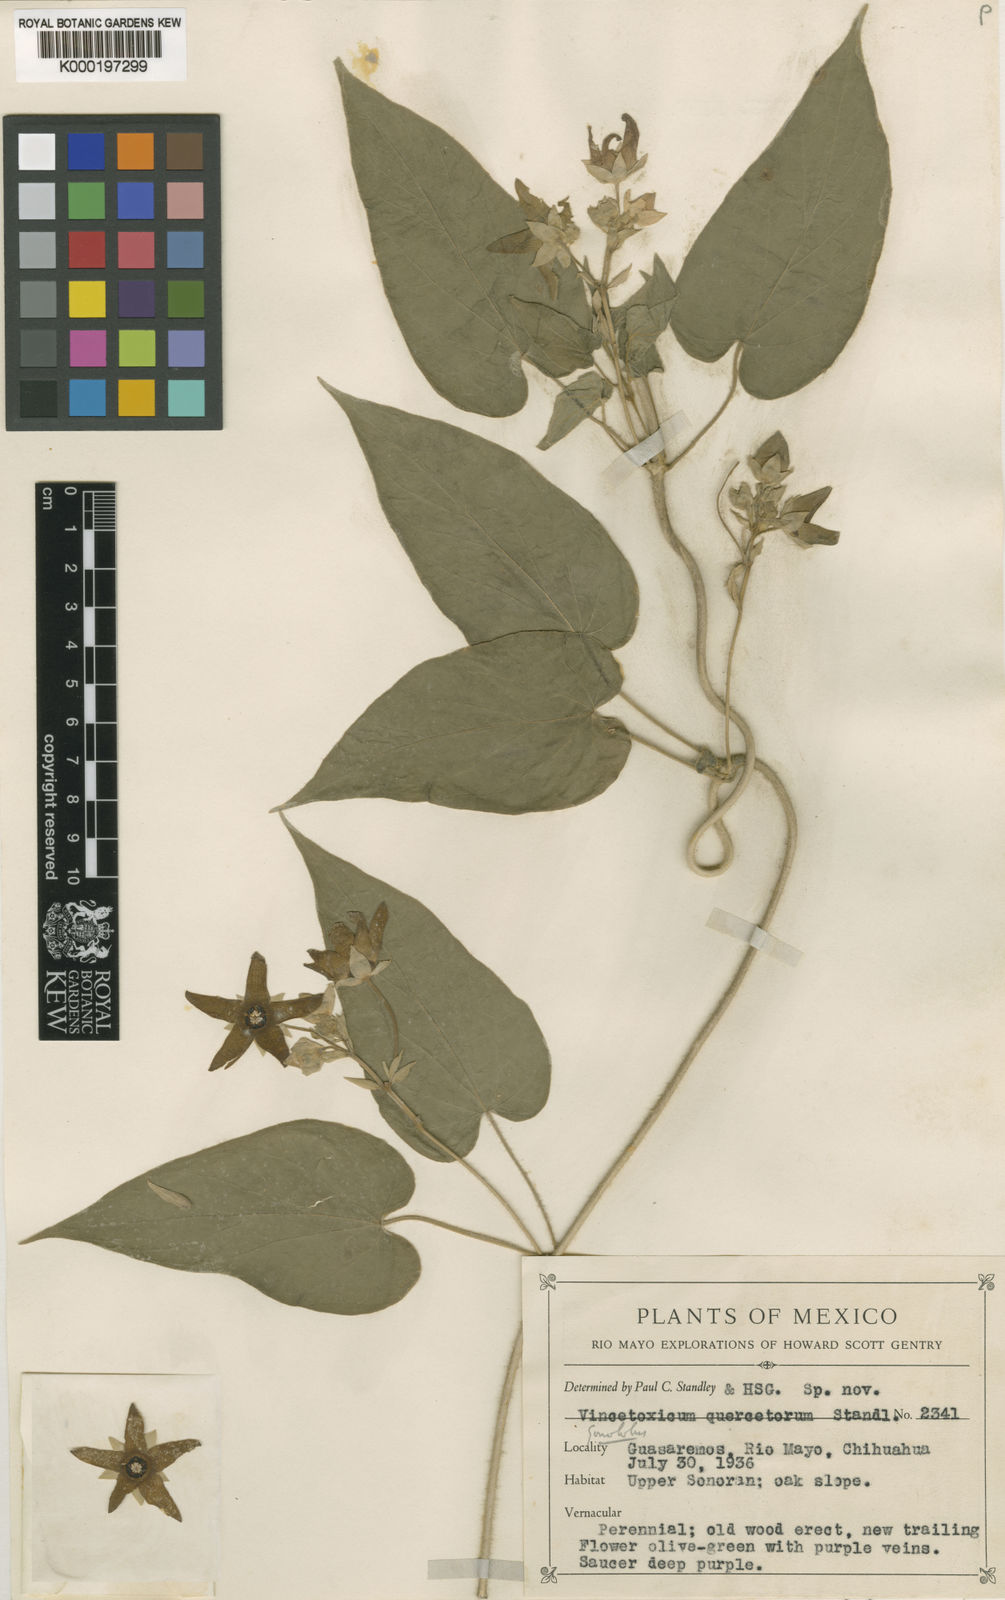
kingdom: Plantae
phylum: Tracheophyta
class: Magnoliopsida
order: Gentianales
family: Apocynaceae
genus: Matelea
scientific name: Matelea quercetorum
